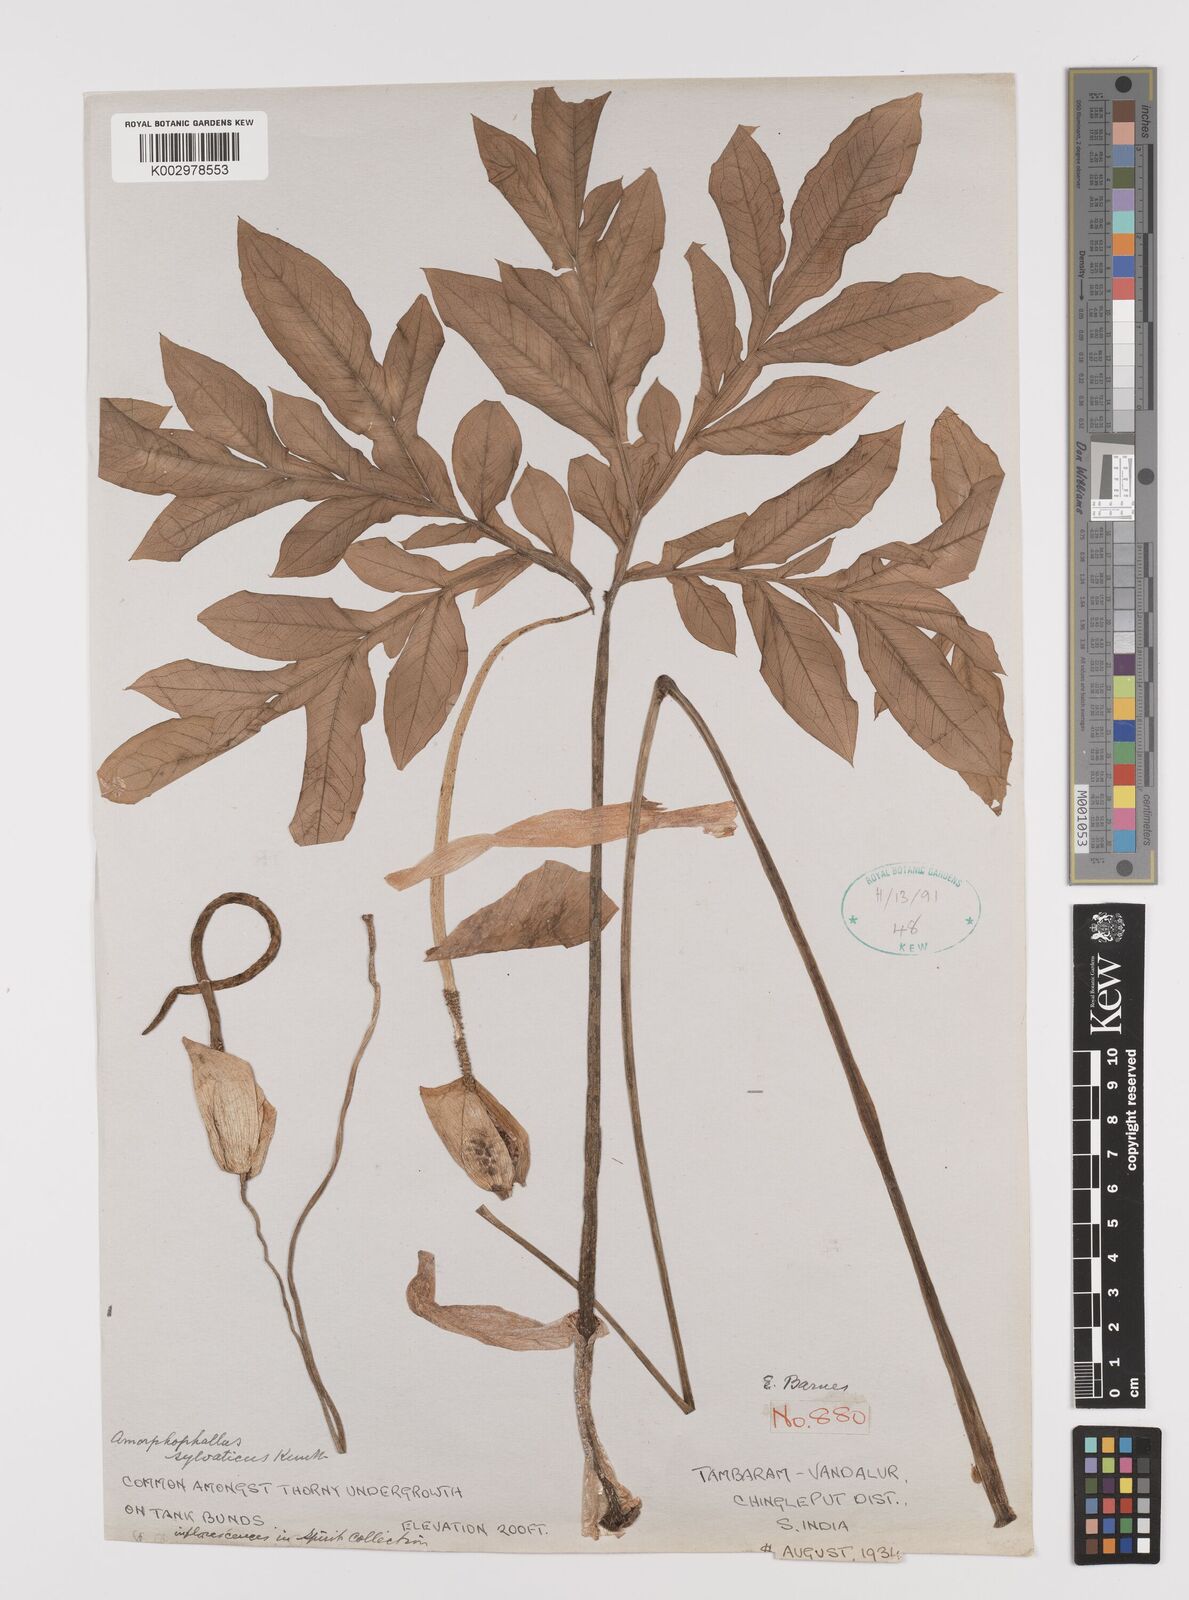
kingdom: Plantae
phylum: Tracheophyta
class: Liliopsida
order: Alismatales
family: Araceae
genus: Amorphophallus
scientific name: Amorphophallus sylvaticus
